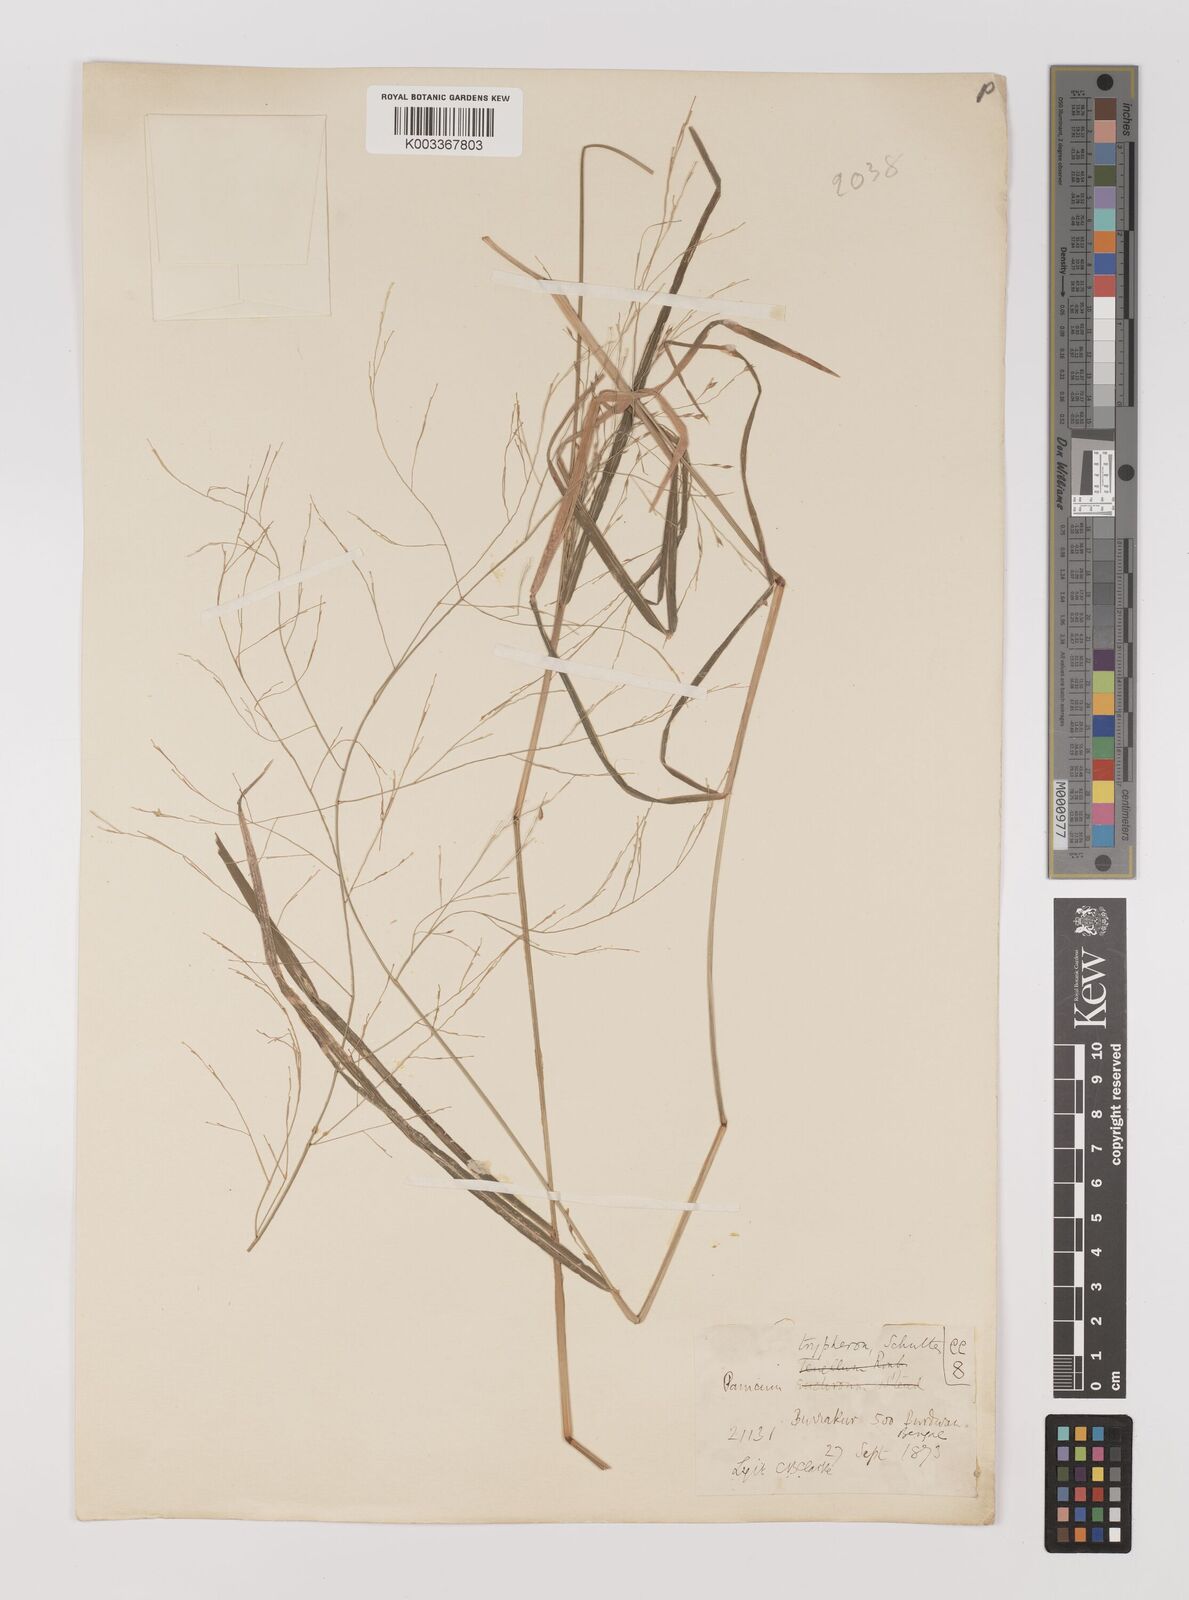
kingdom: Plantae
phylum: Tracheophyta
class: Liliopsida
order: Poales
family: Poaceae
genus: Panicum
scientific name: Panicum curviflorum
